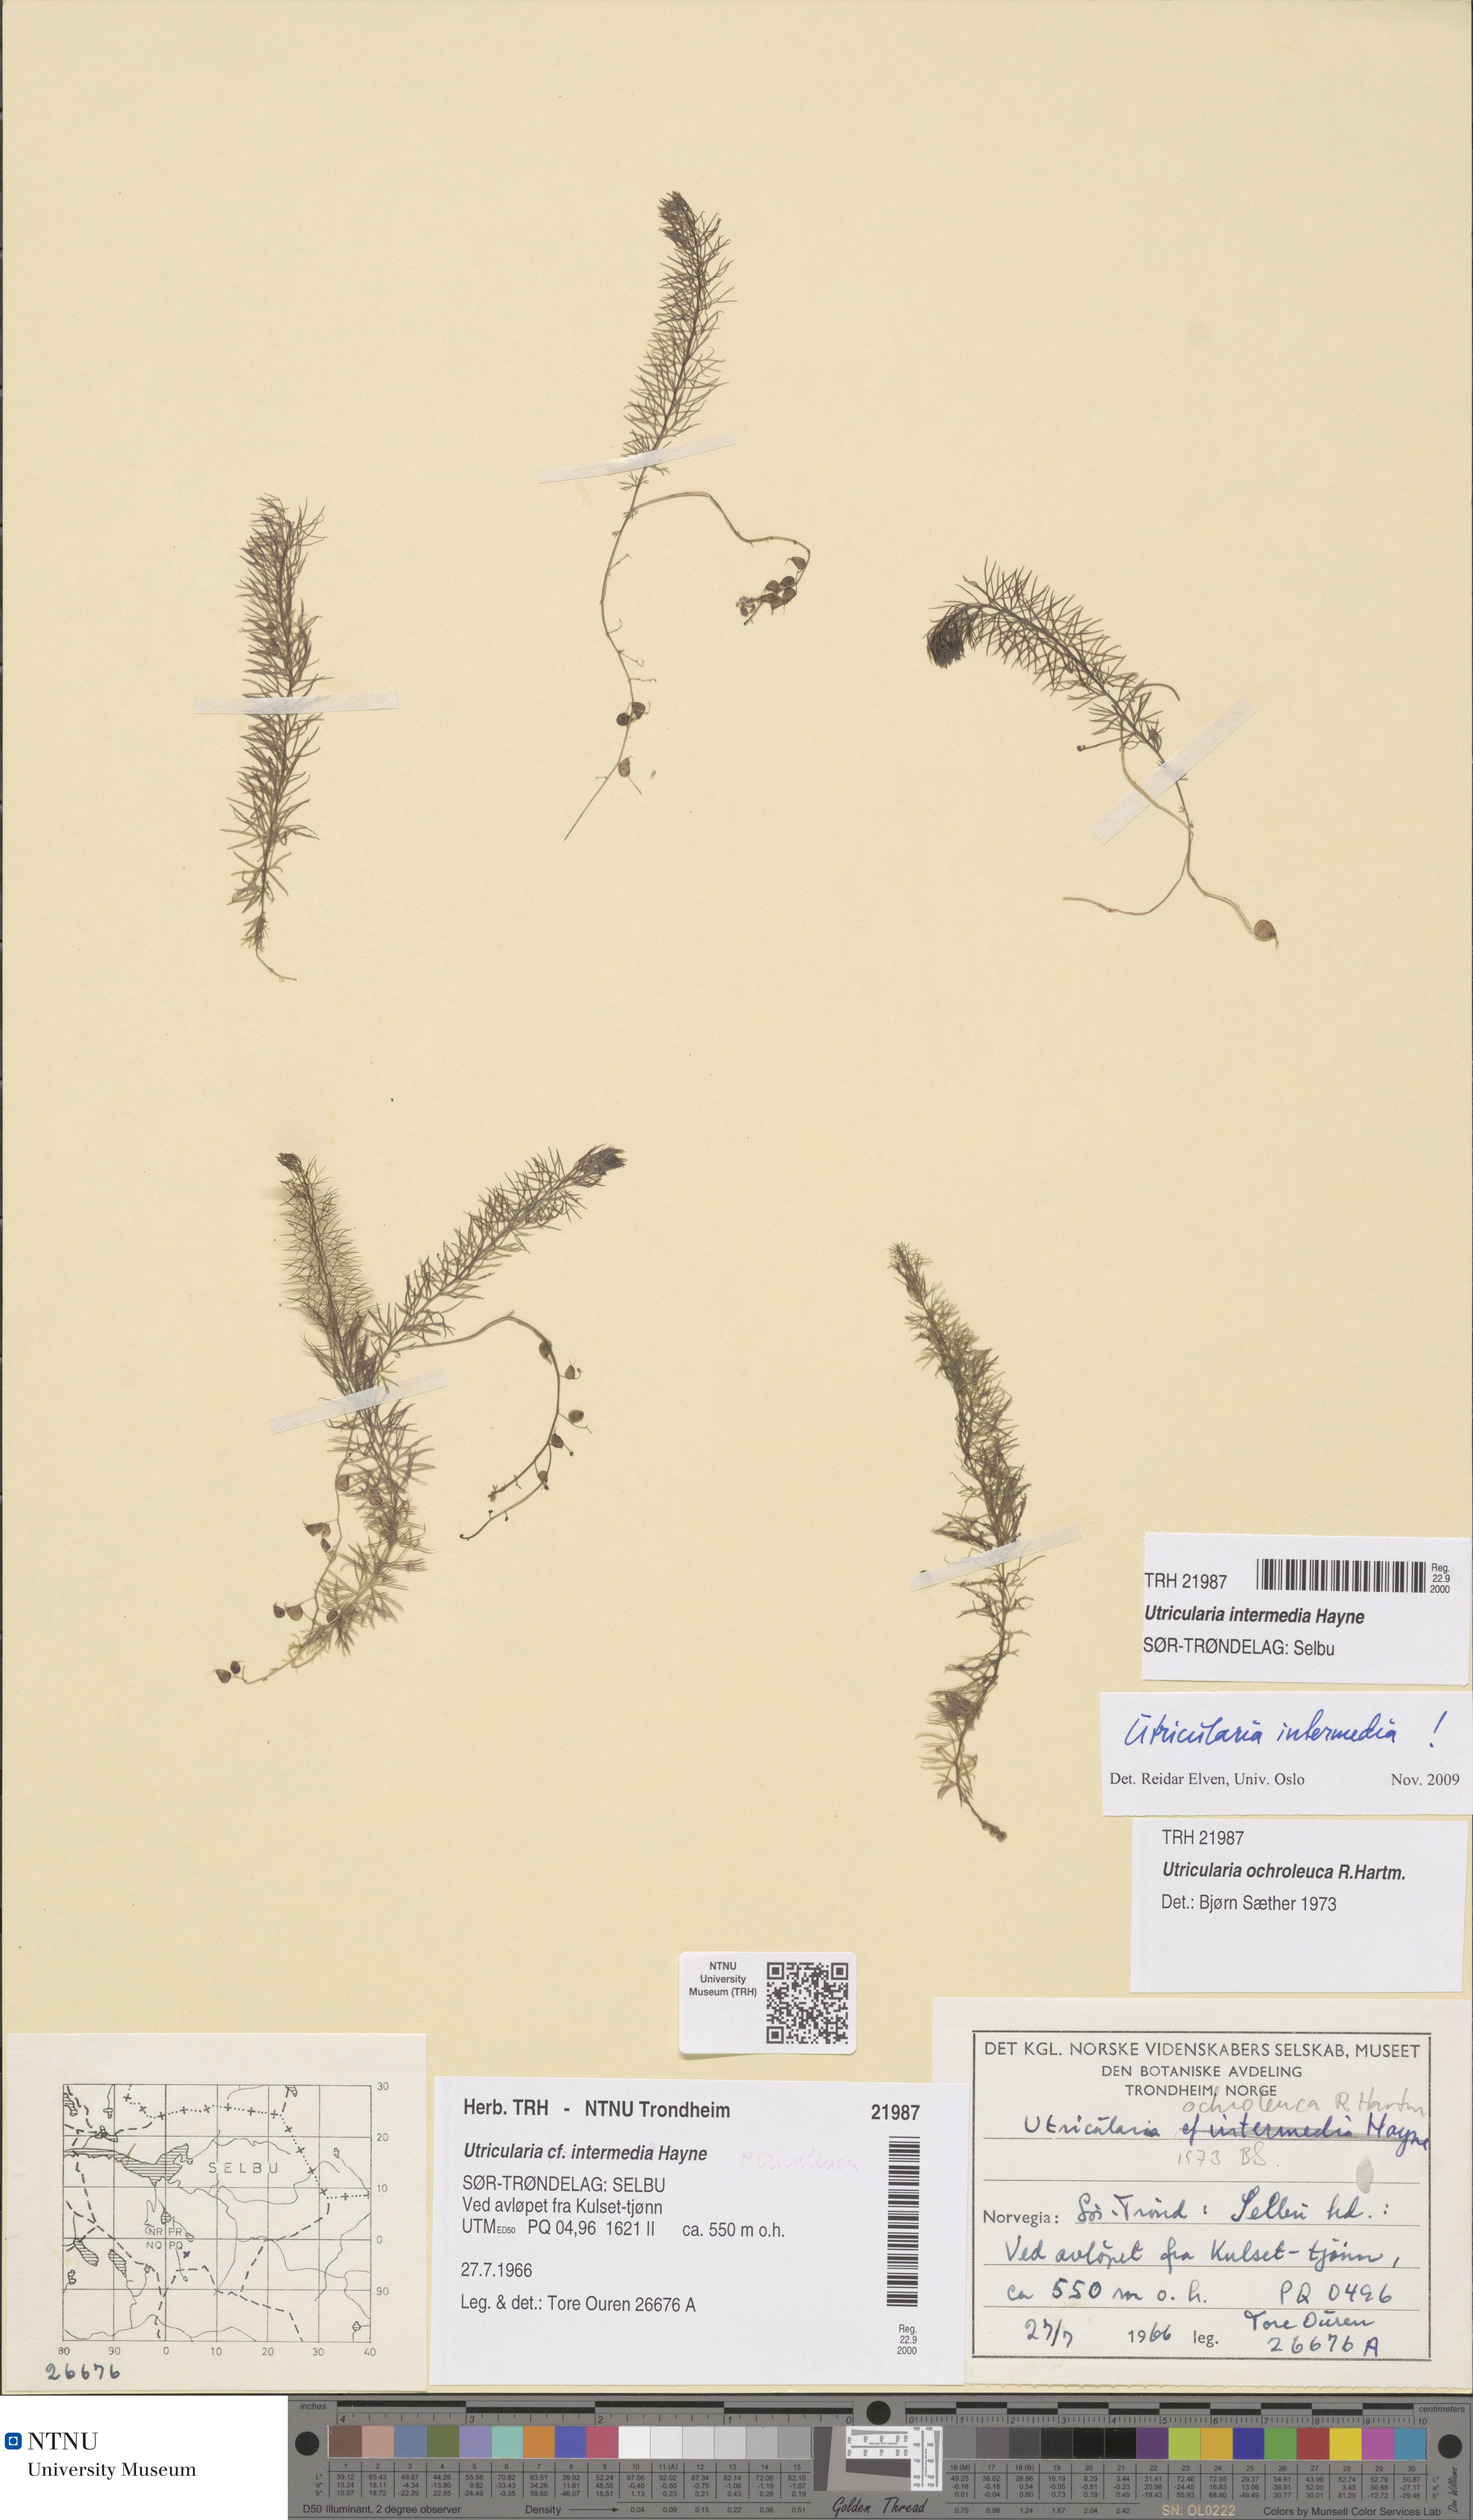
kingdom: Plantae
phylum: Tracheophyta
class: Magnoliopsida
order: Lamiales
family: Lentibulariaceae
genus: Utricularia
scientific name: Utricularia intermedia
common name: Intermediate bladderwort
